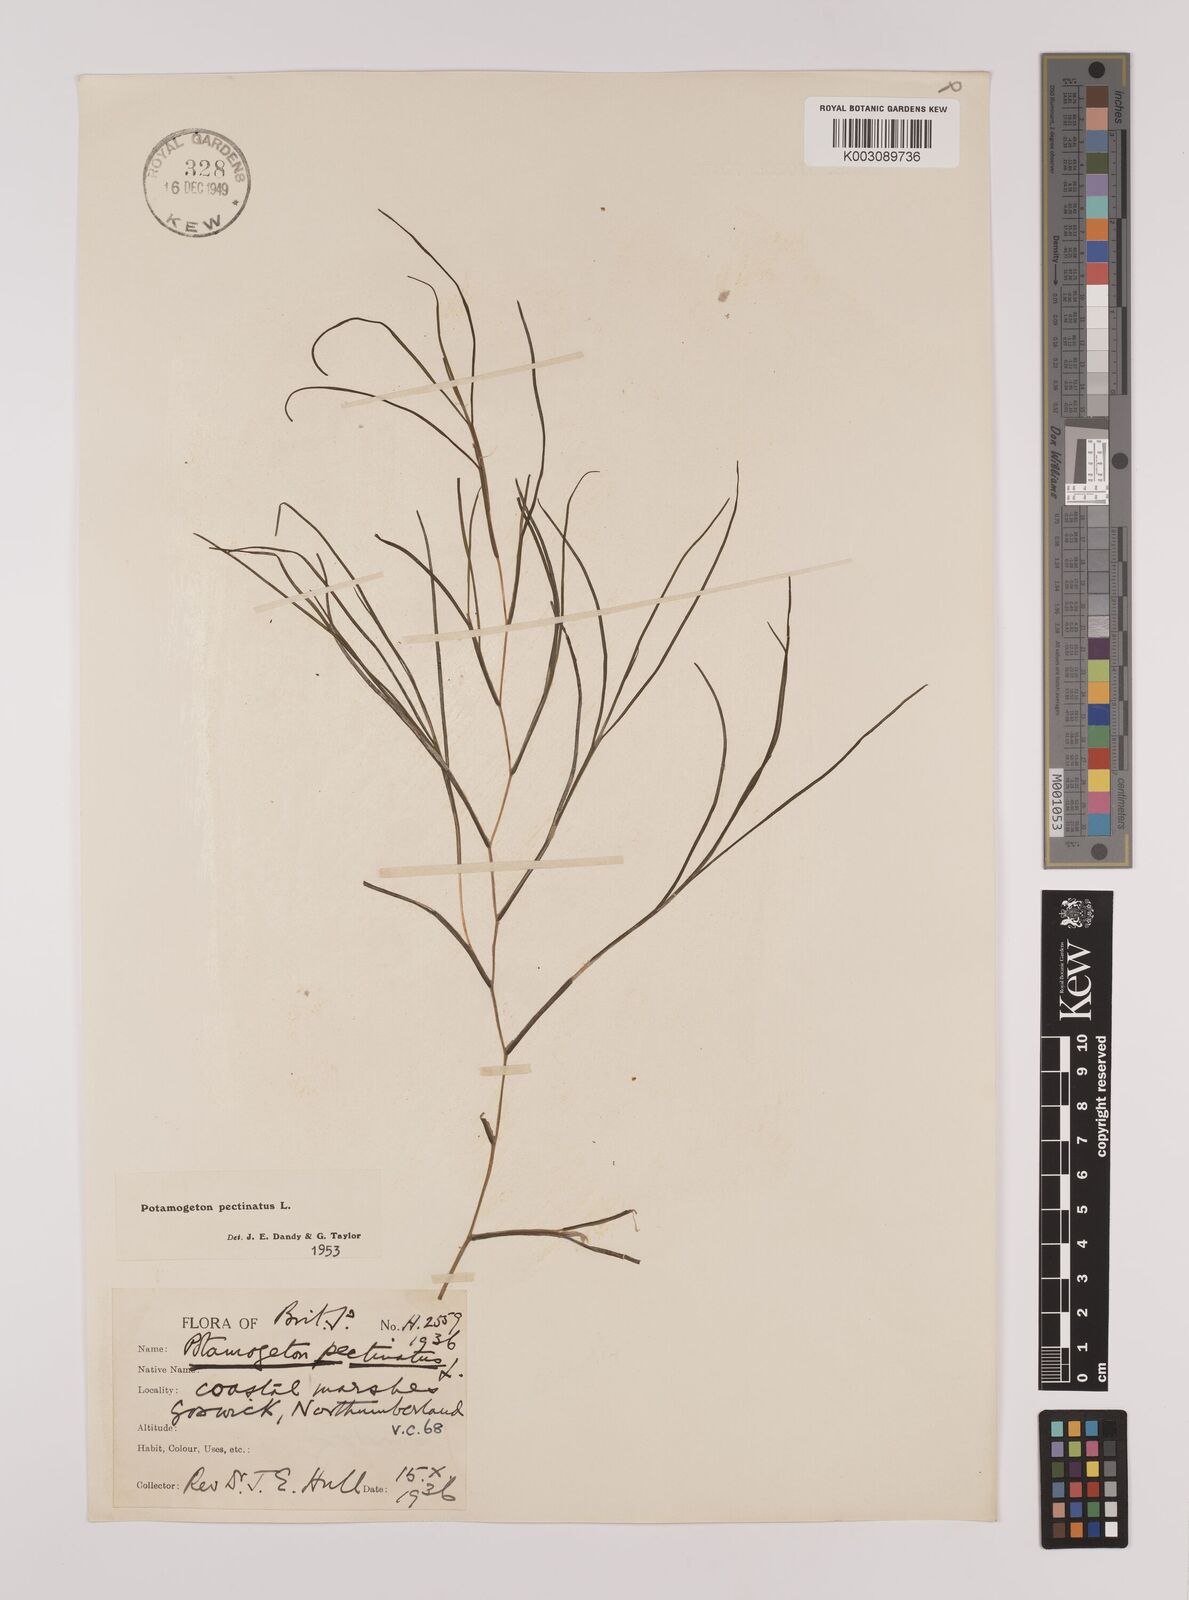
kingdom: Plantae
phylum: Tracheophyta
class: Liliopsida
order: Alismatales
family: Potamogetonaceae
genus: Stuckenia
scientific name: Stuckenia pectinata
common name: Sago pondweed
